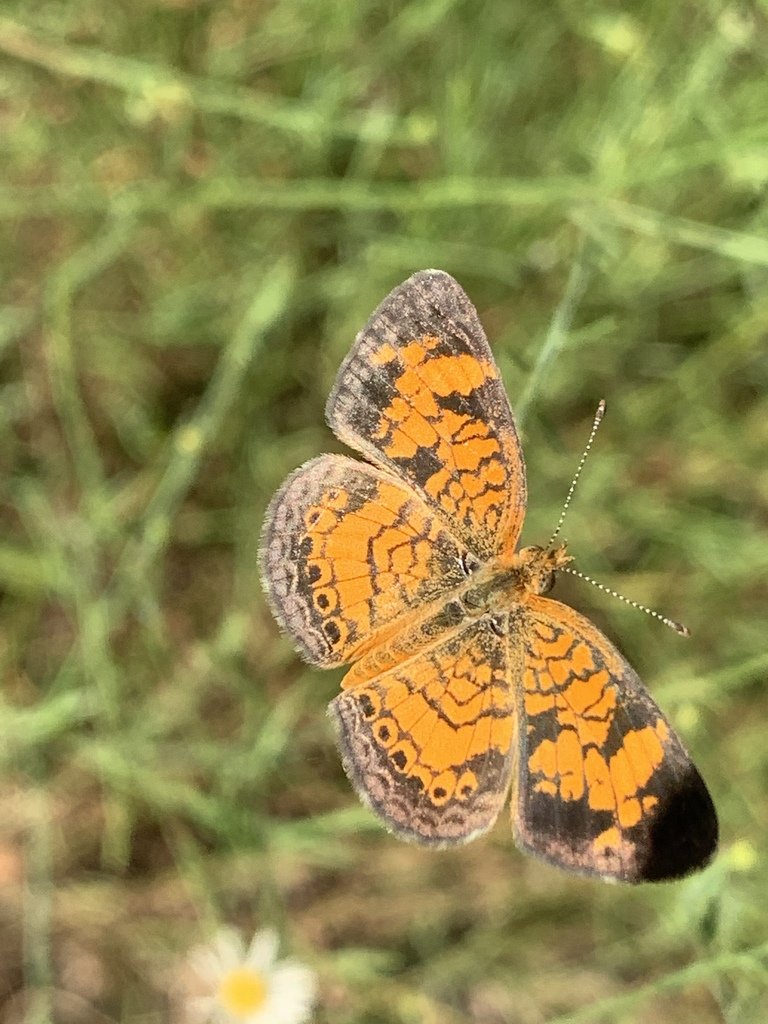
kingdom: Animalia
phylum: Arthropoda
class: Insecta
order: Lepidoptera
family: Nymphalidae
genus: Phyciodes
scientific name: Phyciodes tharos
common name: Pearl Crescent
